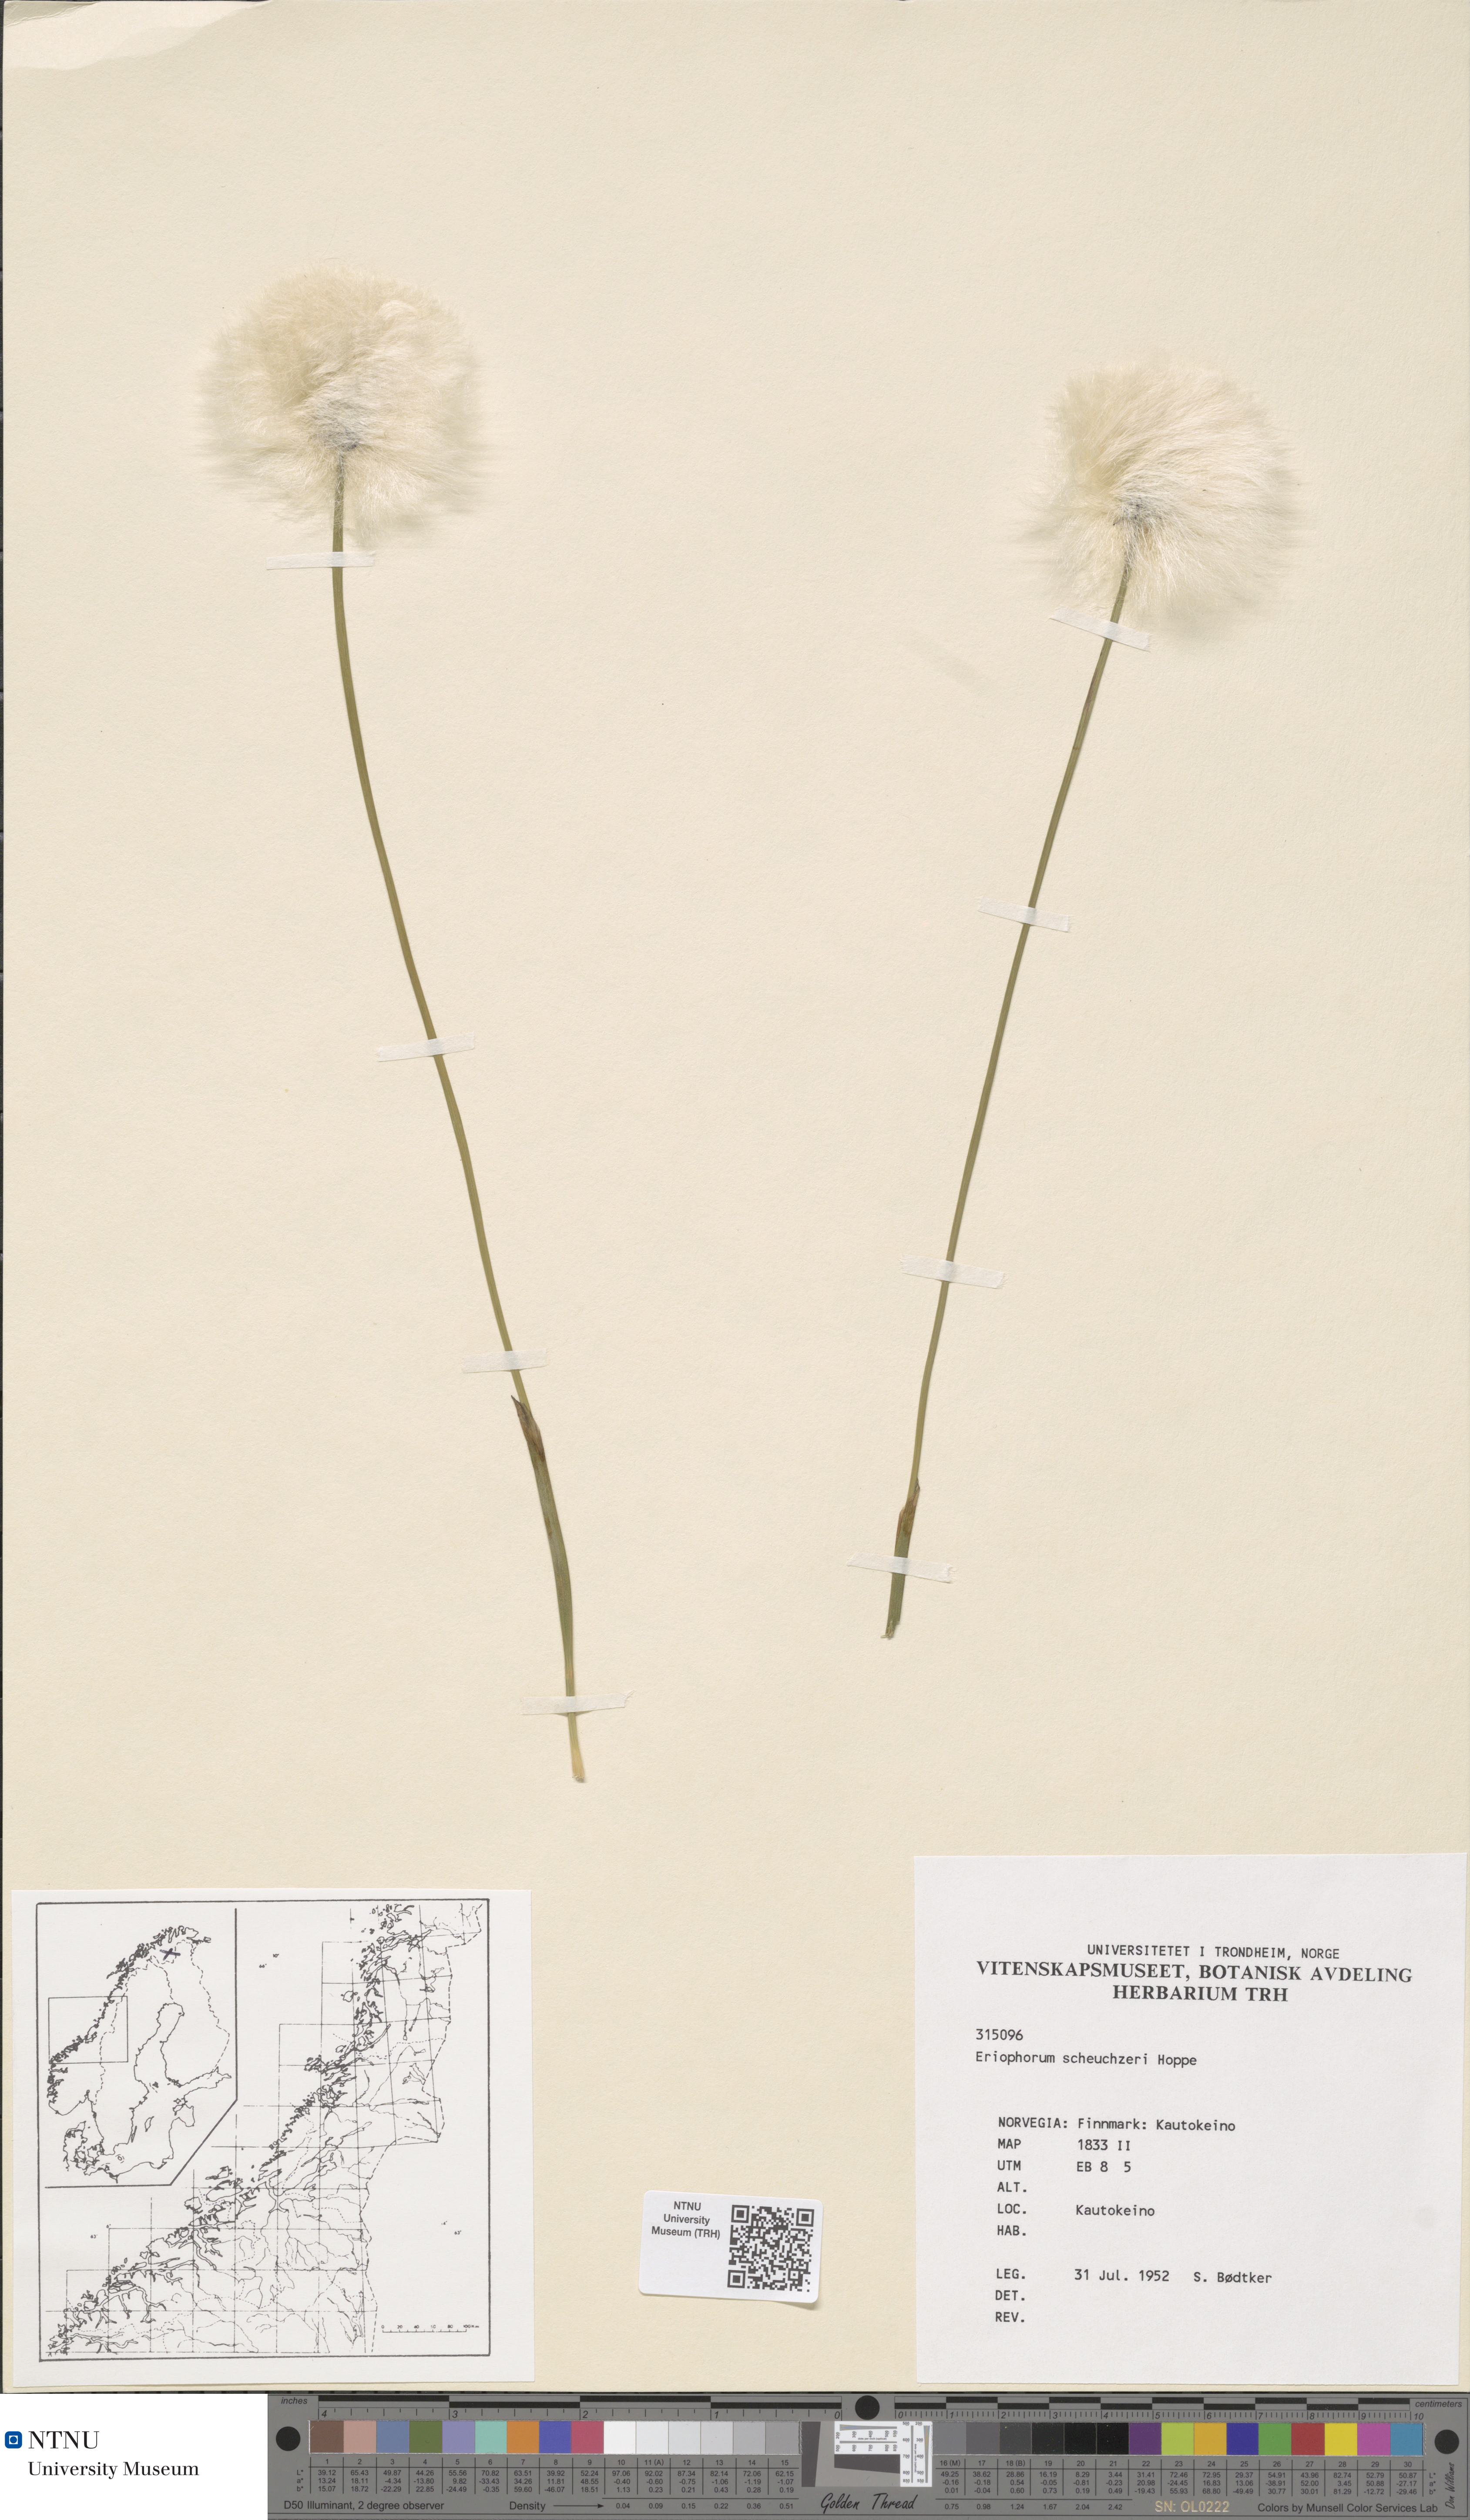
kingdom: Plantae
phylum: Tracheophyta
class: Liliopsida
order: Poales
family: Cyperaceae
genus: Eriophorum
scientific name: Eriophorum scheuchzeri
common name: Scheuchzer's cottongrass
